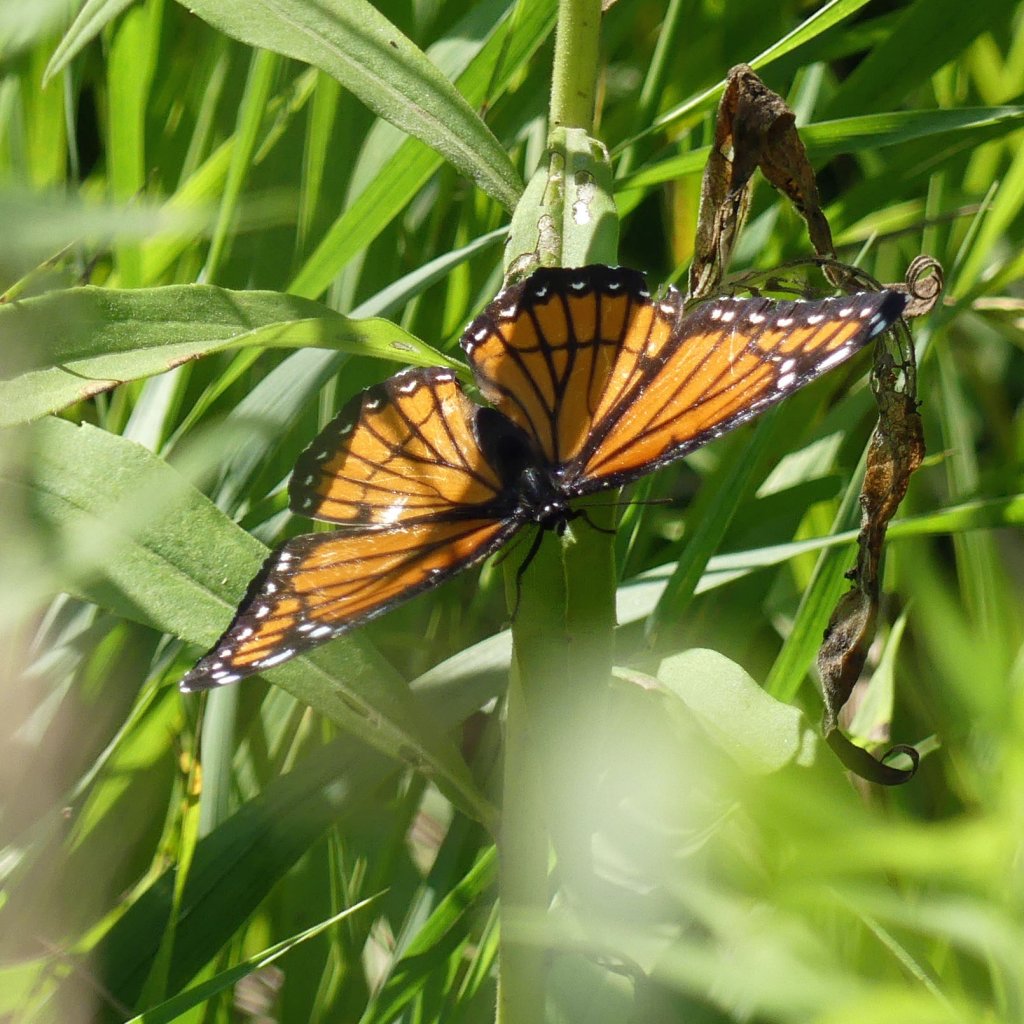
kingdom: Animalia
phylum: Arthropoda
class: Insecta
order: Lepidoptera
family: Nymphalidae
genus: Limenitis
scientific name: Limenitis archippus
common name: Viceroy
